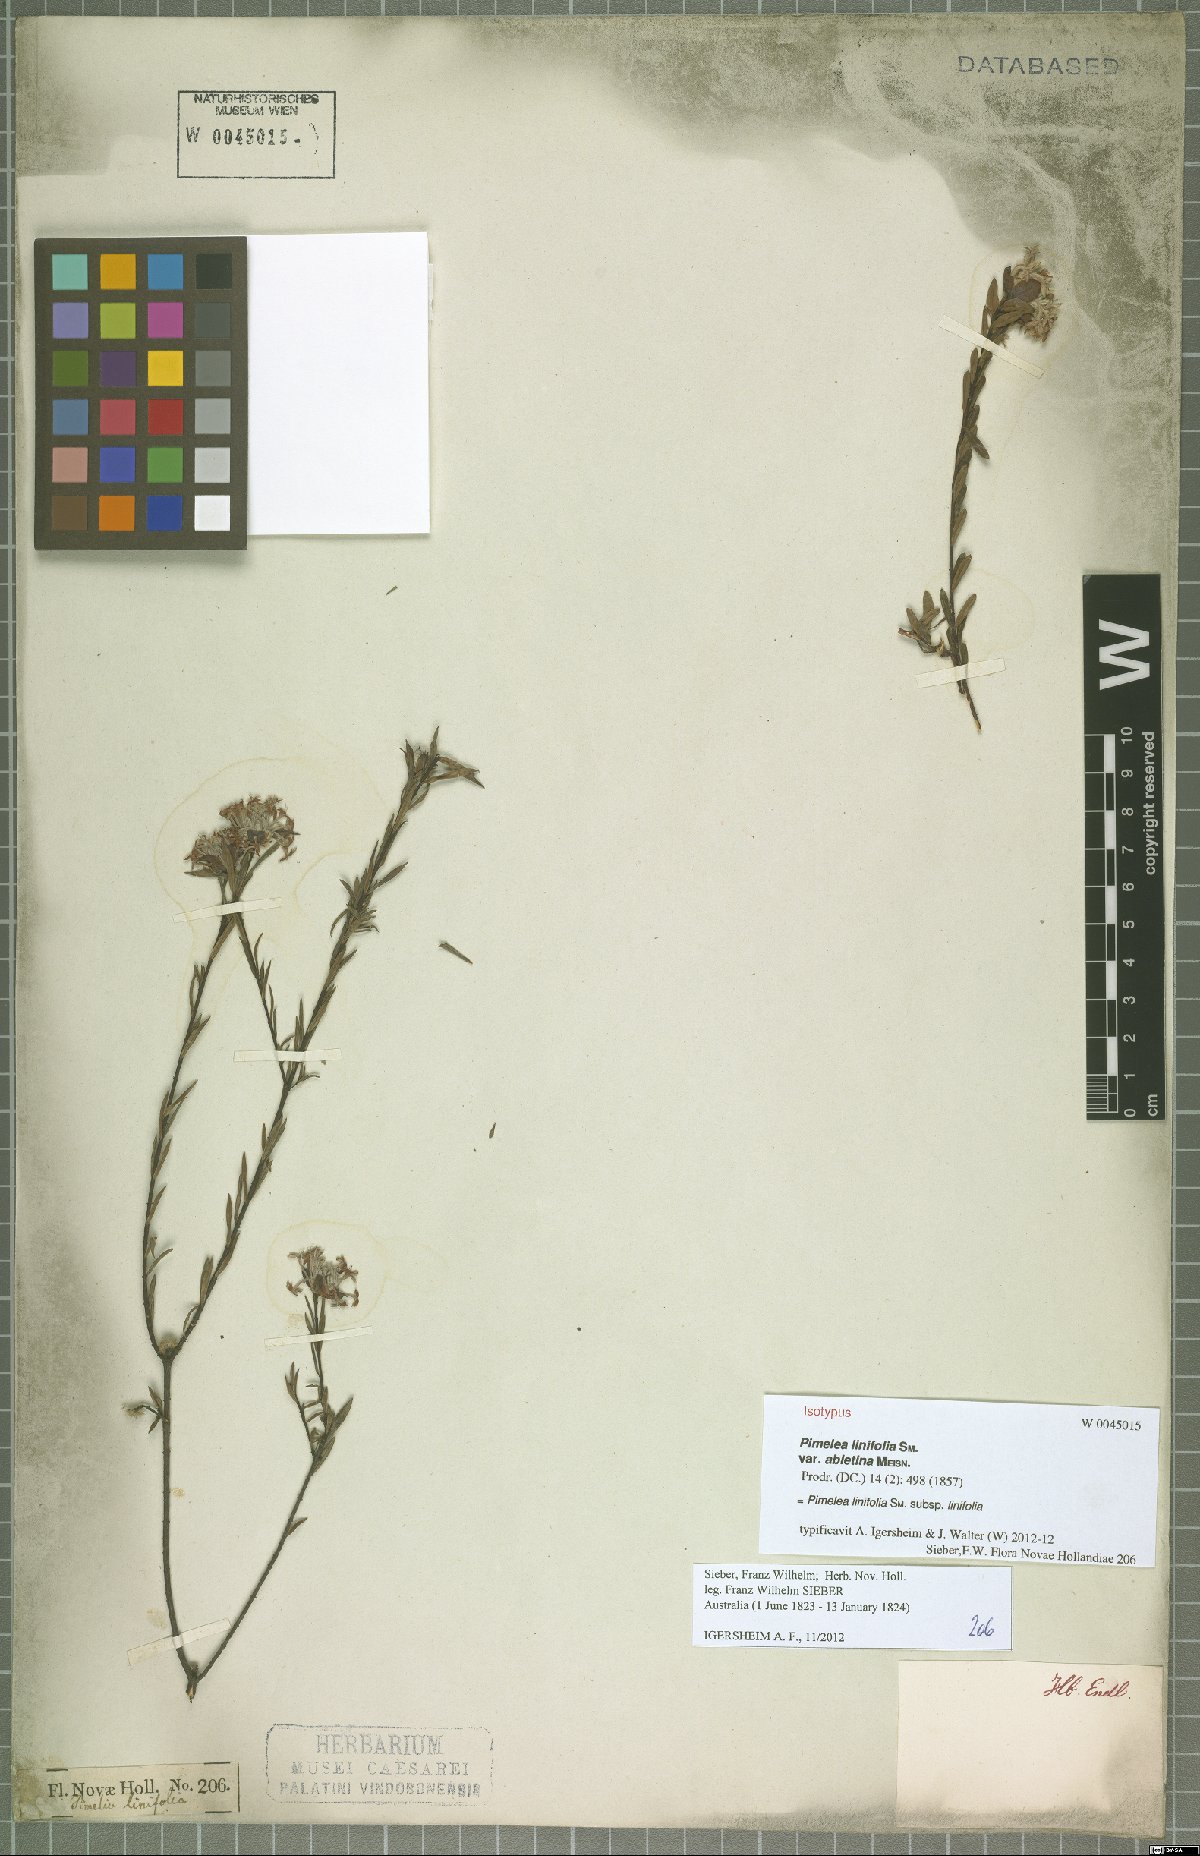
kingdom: Plantae
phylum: Tracheophyta
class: Magnoliopsida
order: Malvales
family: Thymelaeaceae
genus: Pimelea
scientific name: Pimelea linifolia
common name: Queen-of-the-bush
